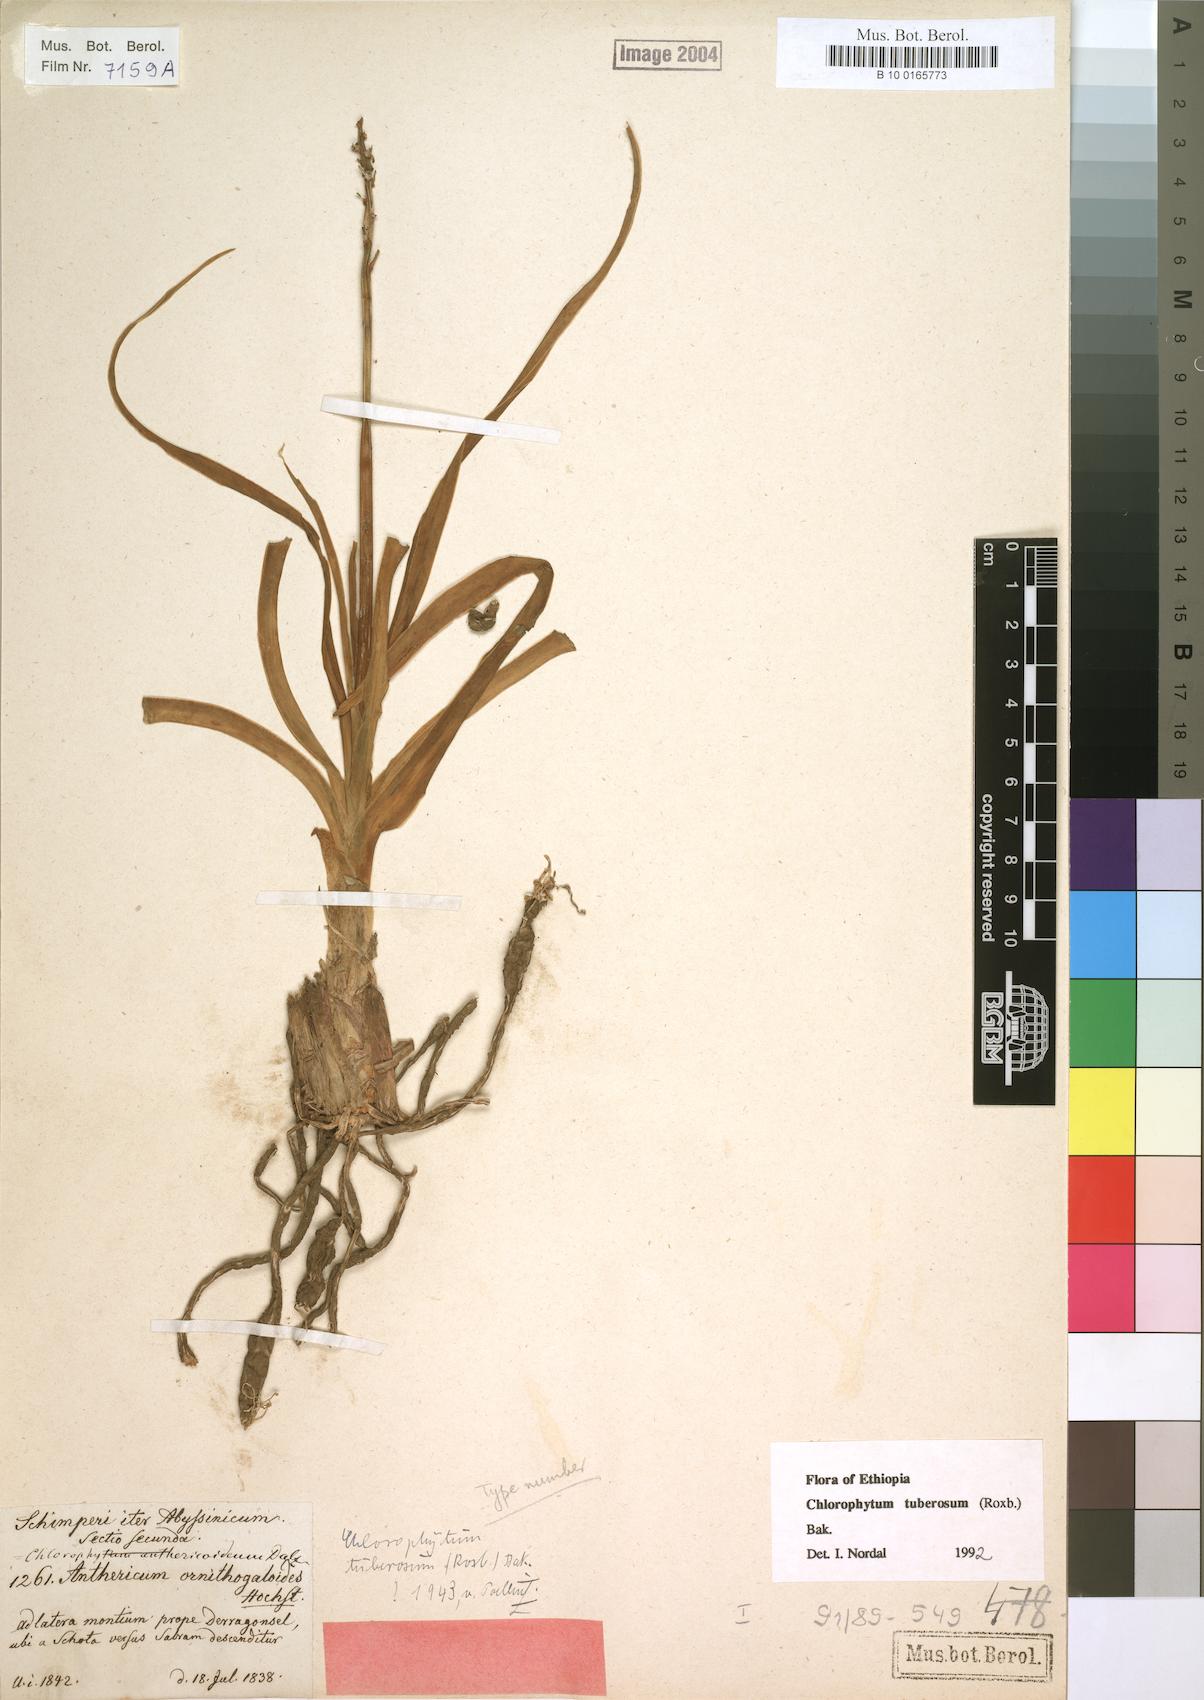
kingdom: Plantae
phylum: Tracheophyta
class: Liliopsida
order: Asparagales
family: Asparagaceae
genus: Chlorophytum
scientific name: Chlorophytum tuberosum
